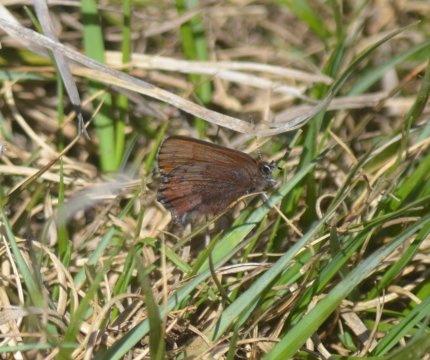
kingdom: Animalia
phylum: Arthropoda
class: Insecta
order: Lepidoptera
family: Lycaenidae
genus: Incisalia
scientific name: Incisalia irioides
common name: Brown Elfin
